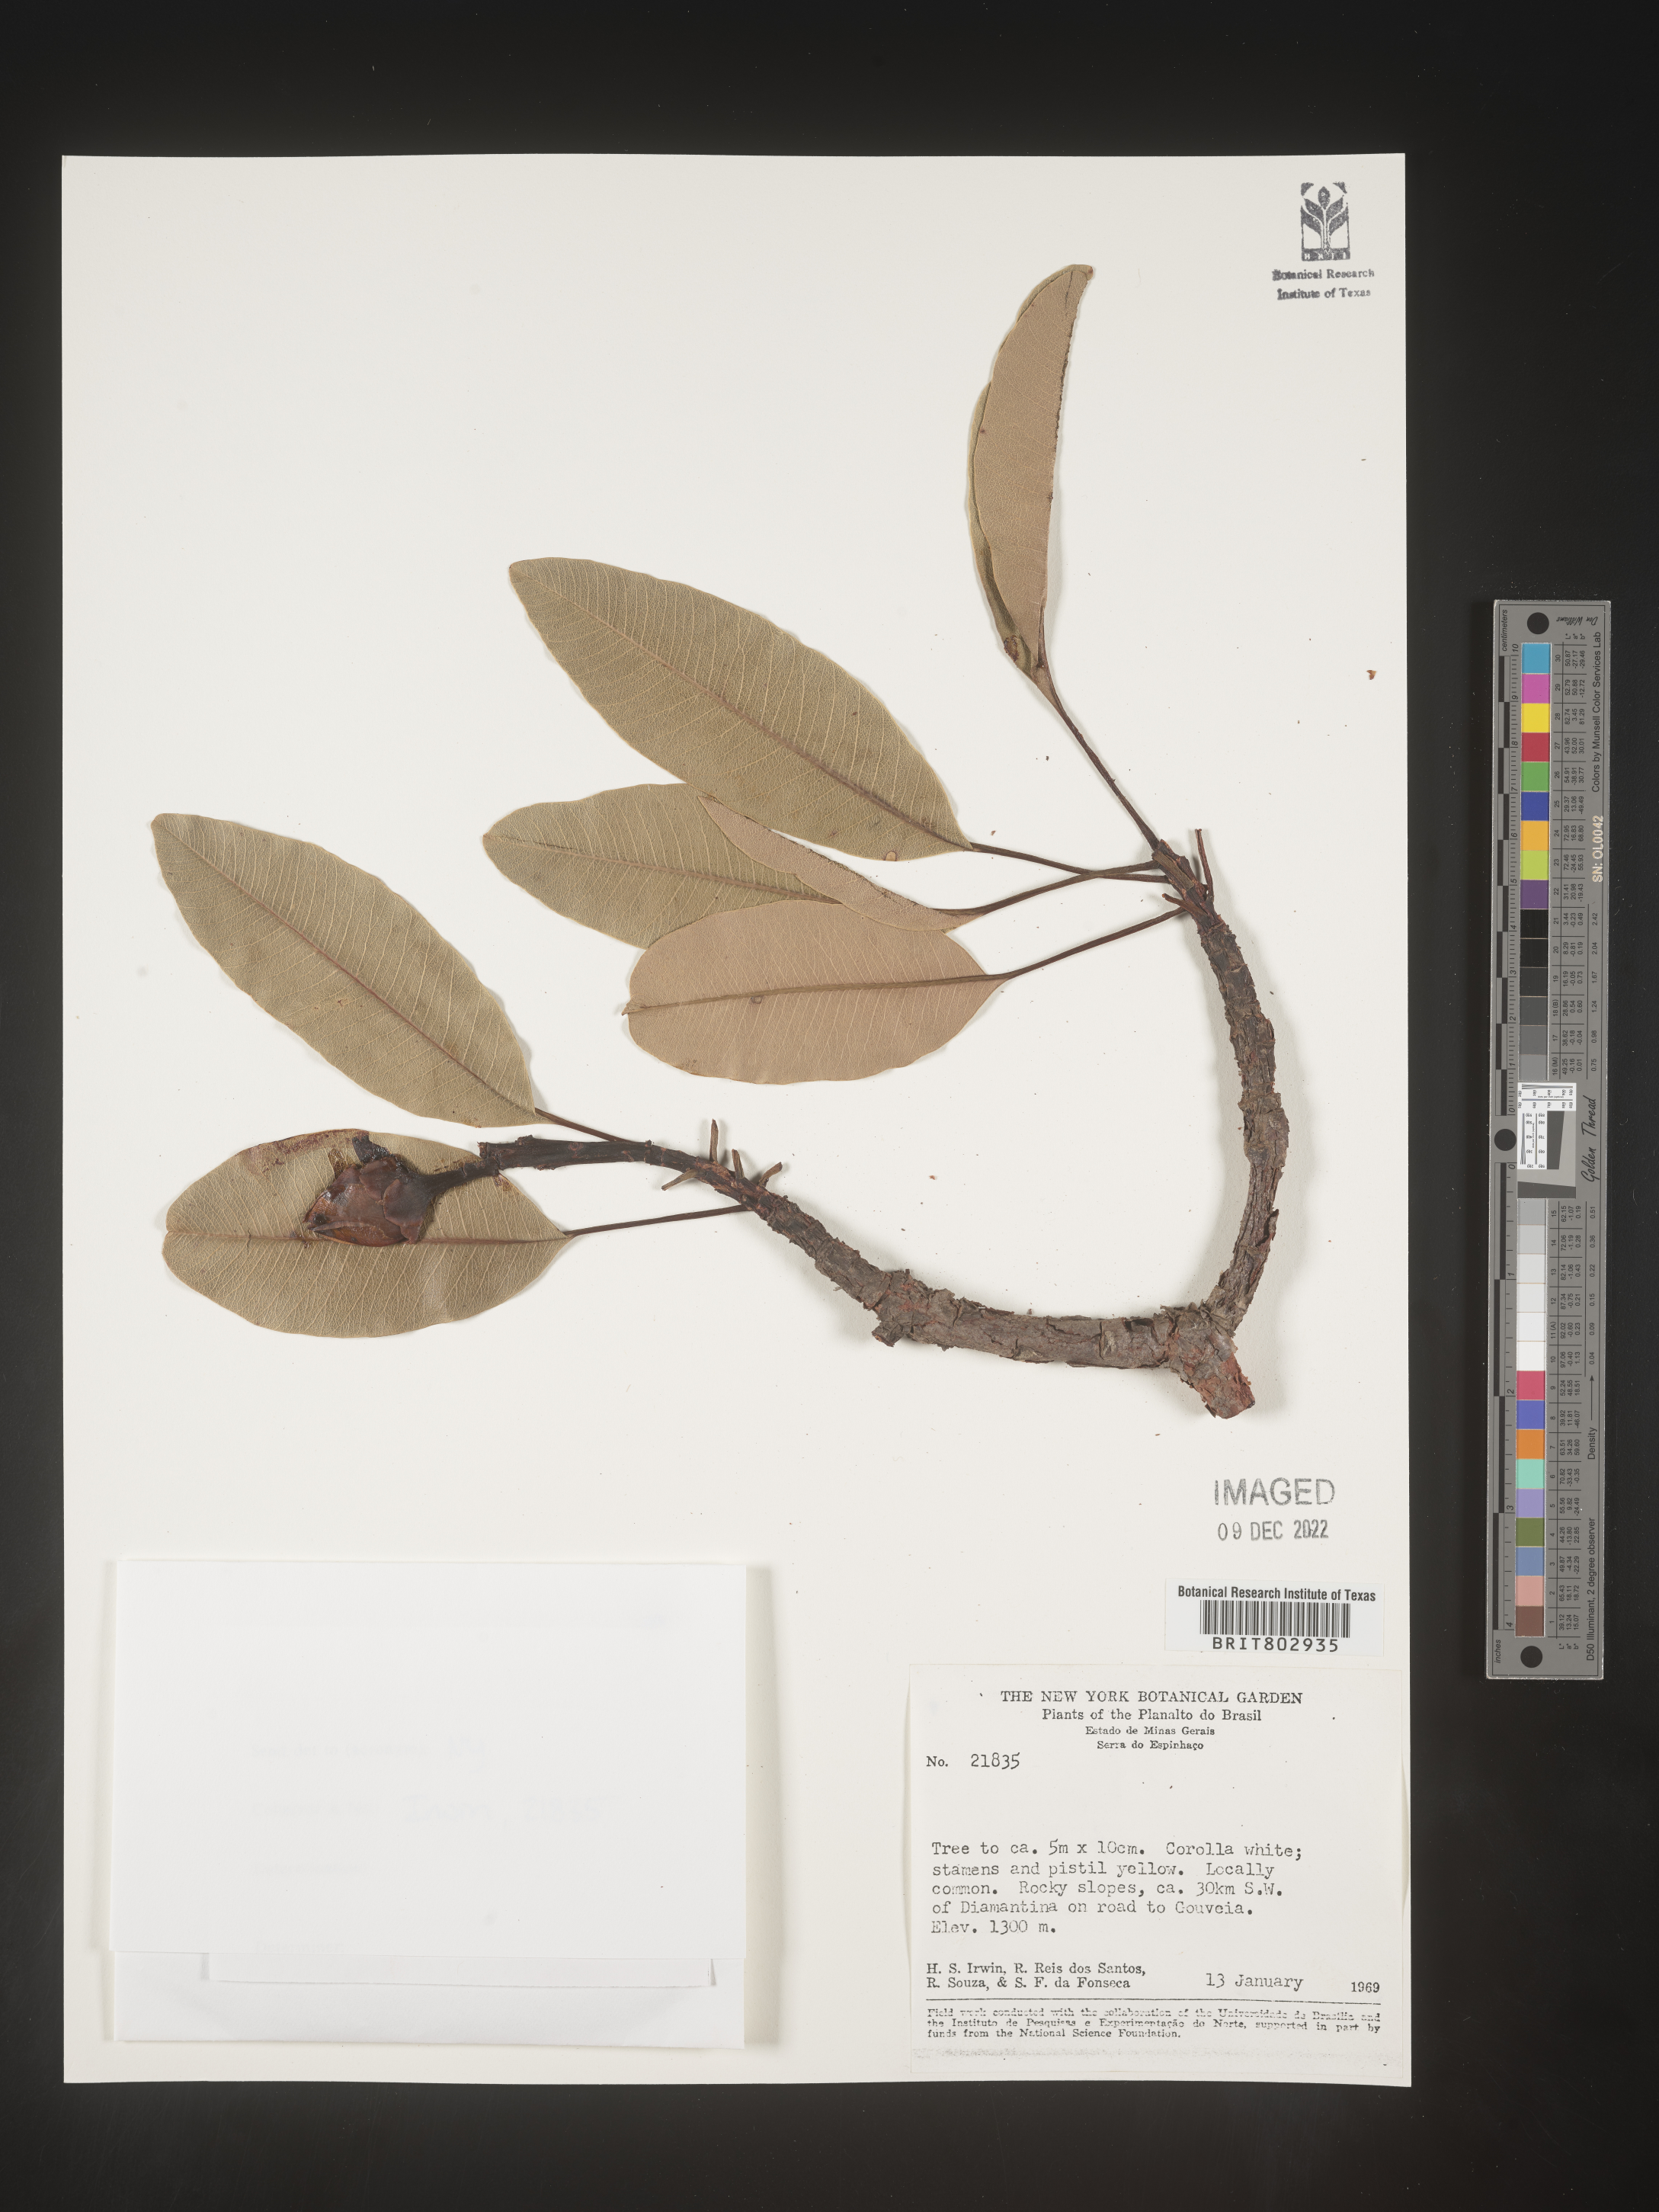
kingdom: Plantae
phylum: Tracheophyta
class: Magnoliopsida
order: Malpighiales
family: Calophyllaceae
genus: Kielmeyera
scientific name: Kielmeyera
